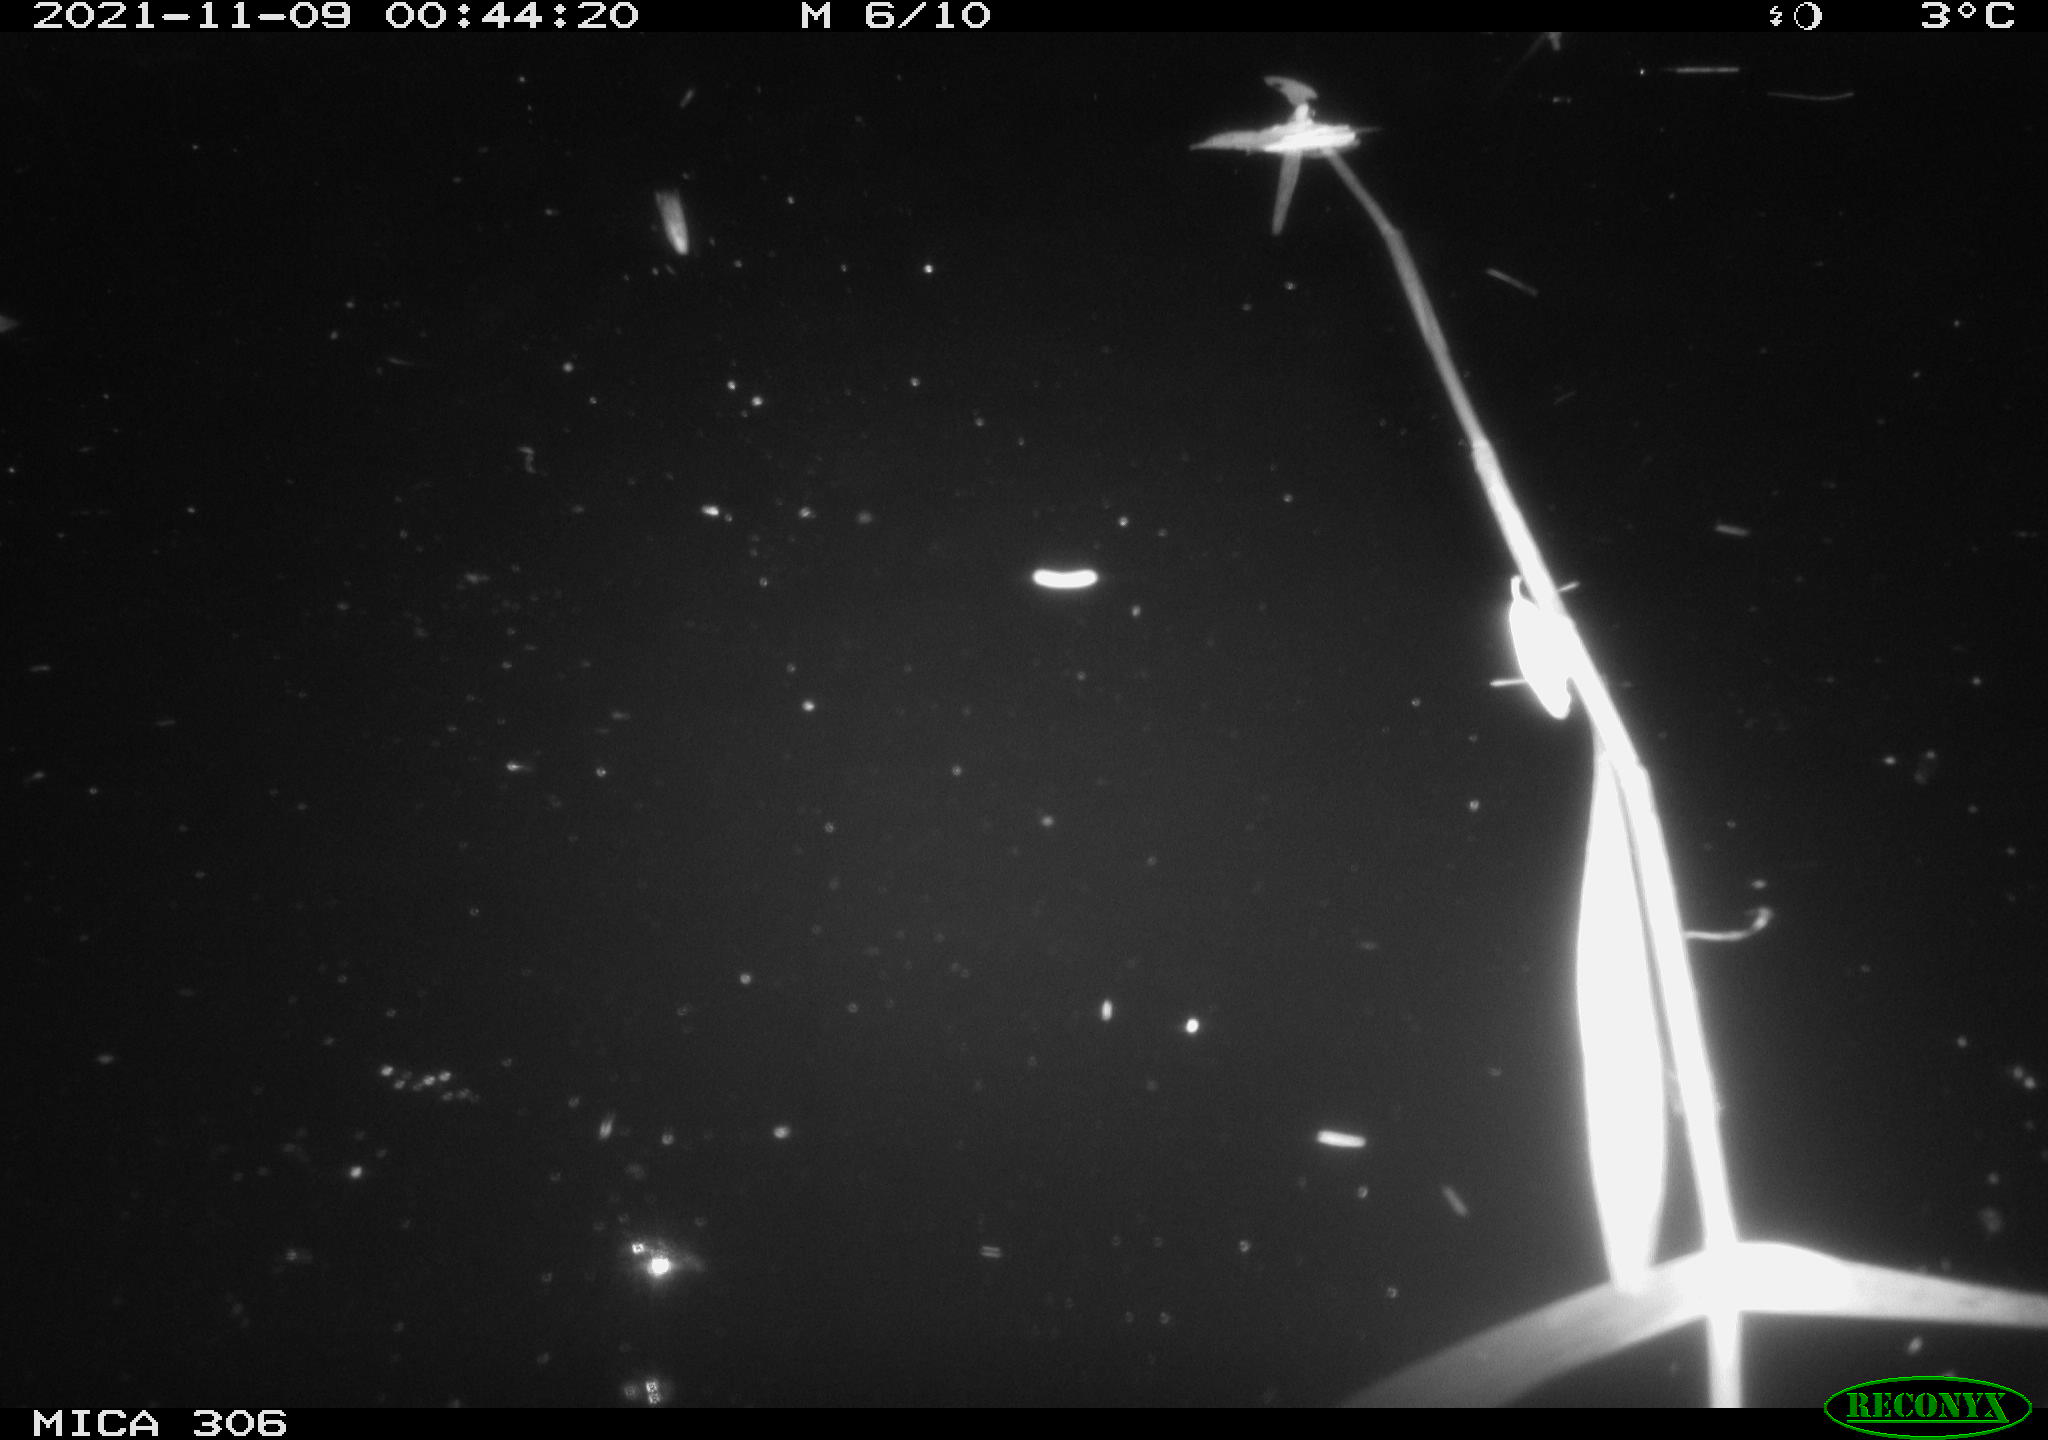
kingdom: Animalia
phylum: Chordata
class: Mammalia
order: Rodentia
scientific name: Rodentia
